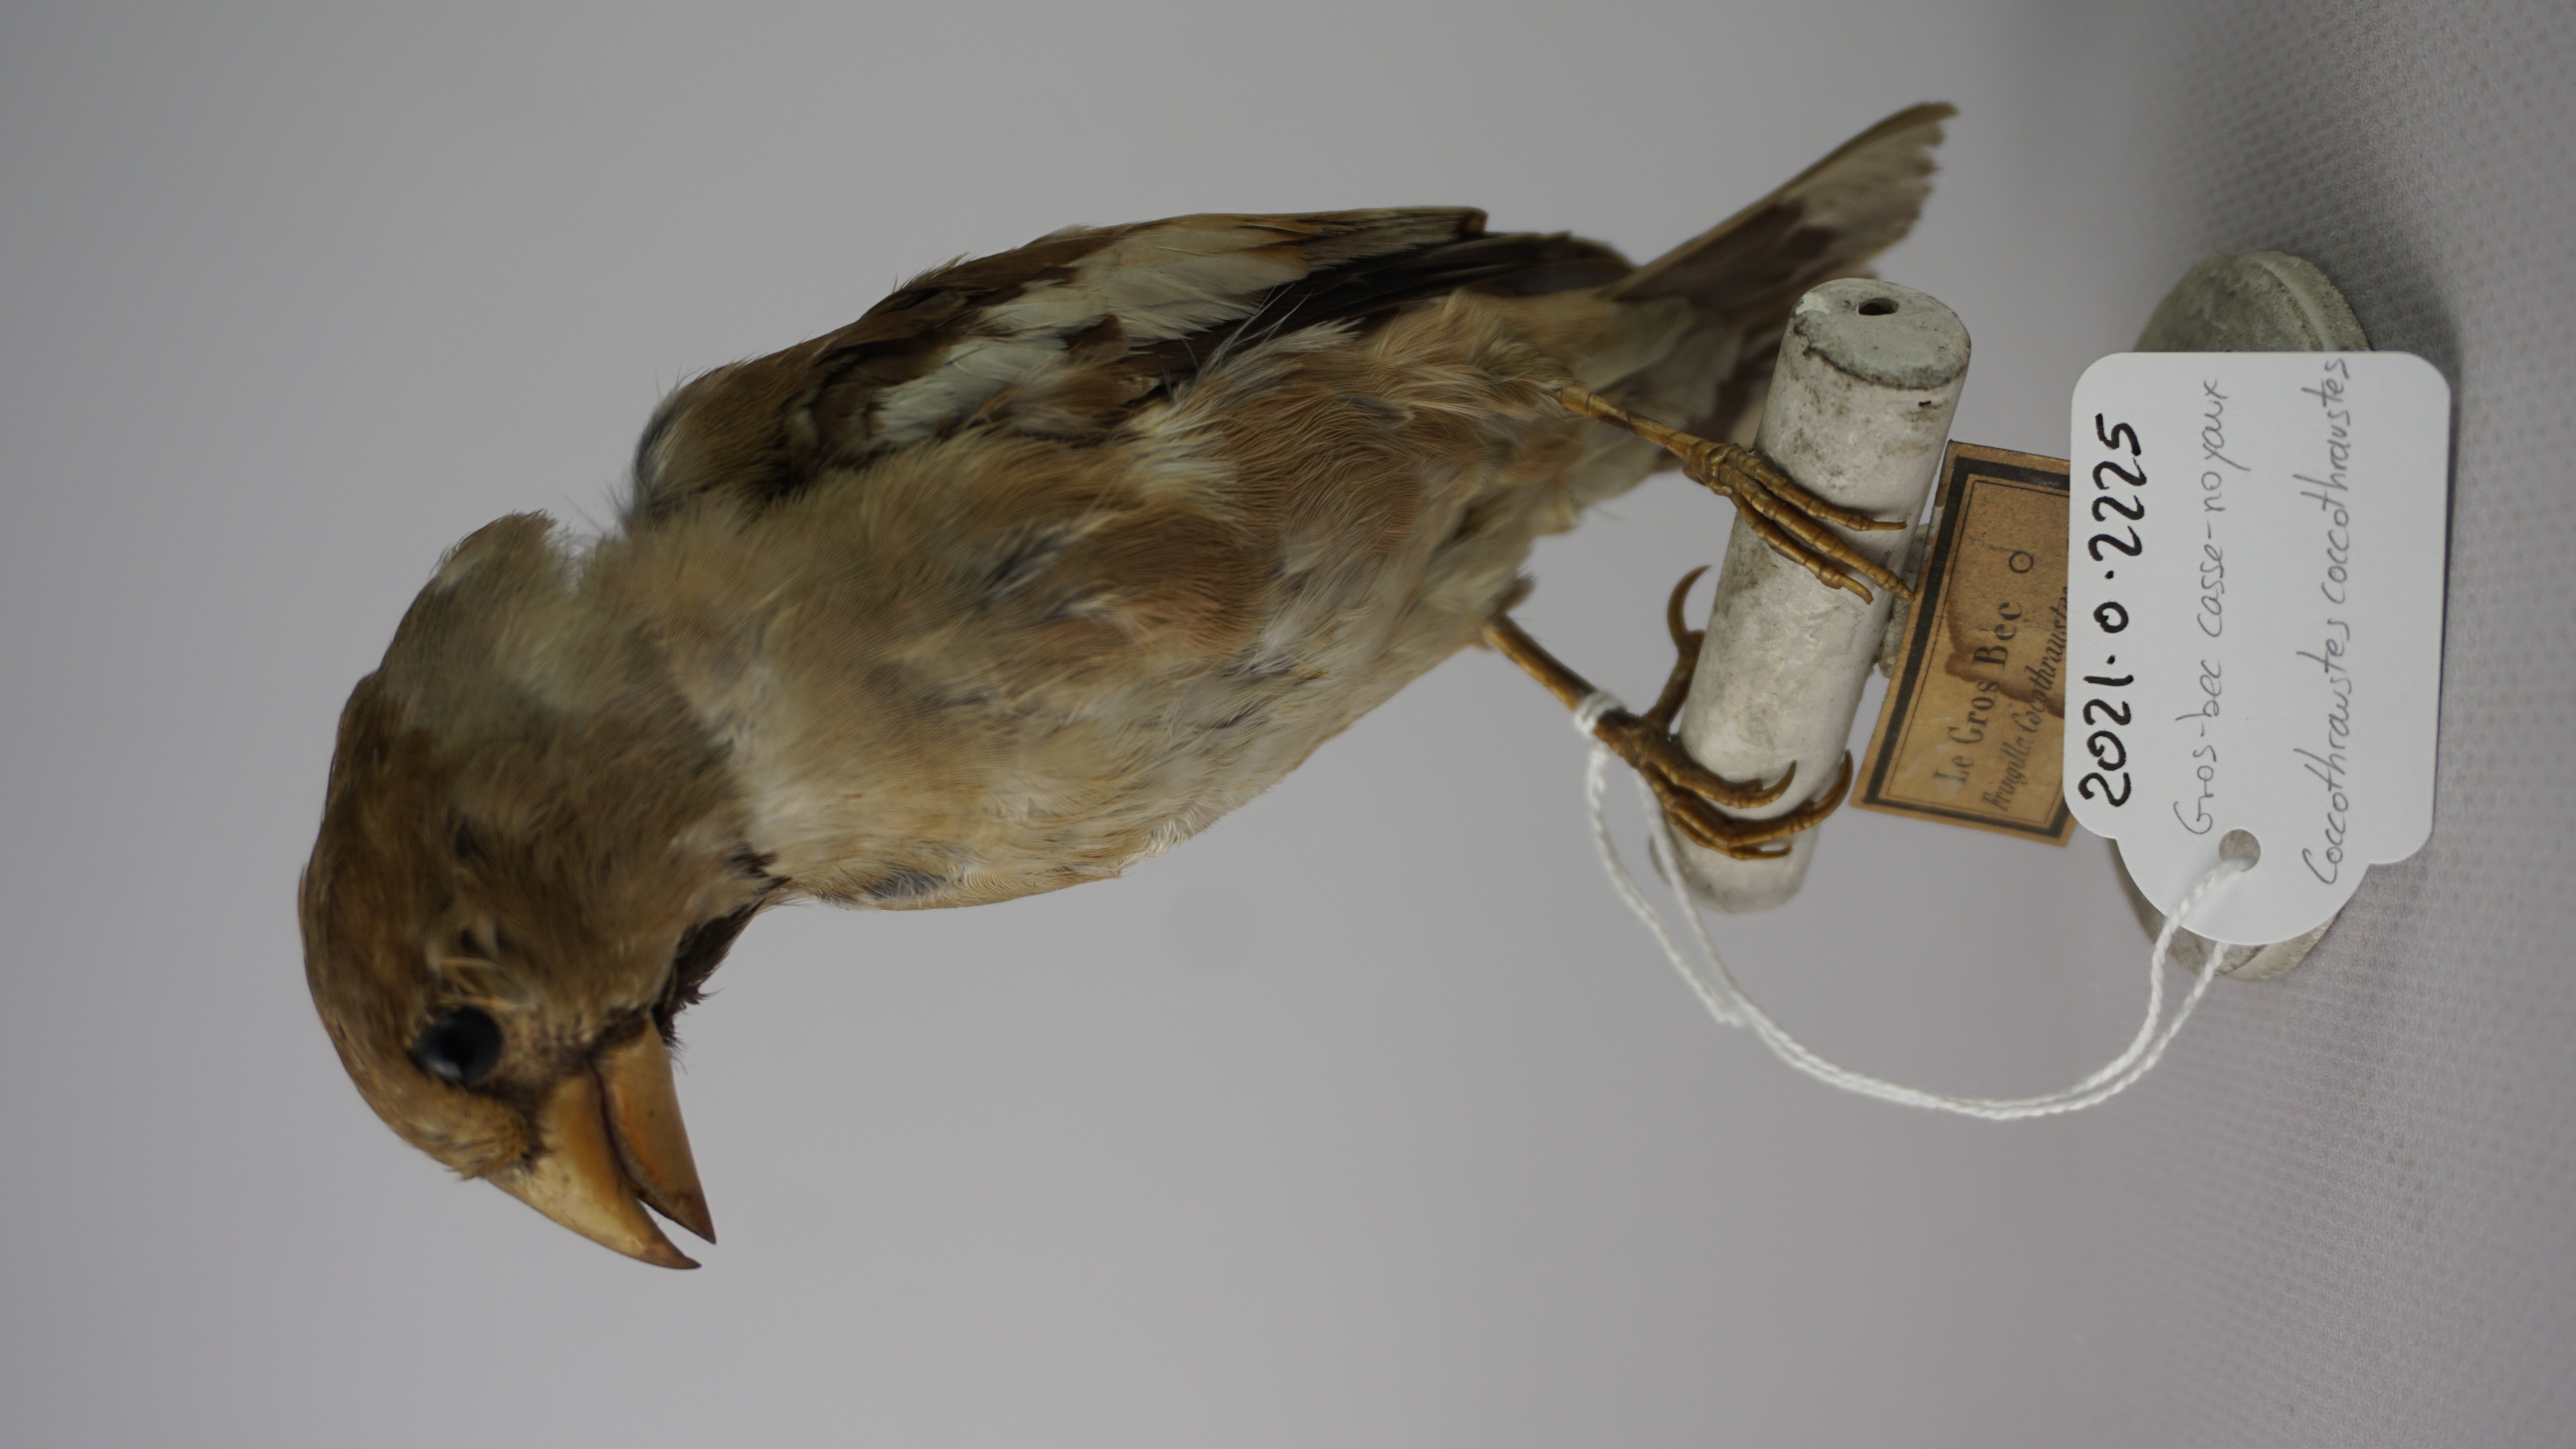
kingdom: Animalia
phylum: Chordata
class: Aves
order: Passeriformes
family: Fringillidae
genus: Coccothraustes
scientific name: Coccothraustes coccothraustes
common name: Hawfinch
